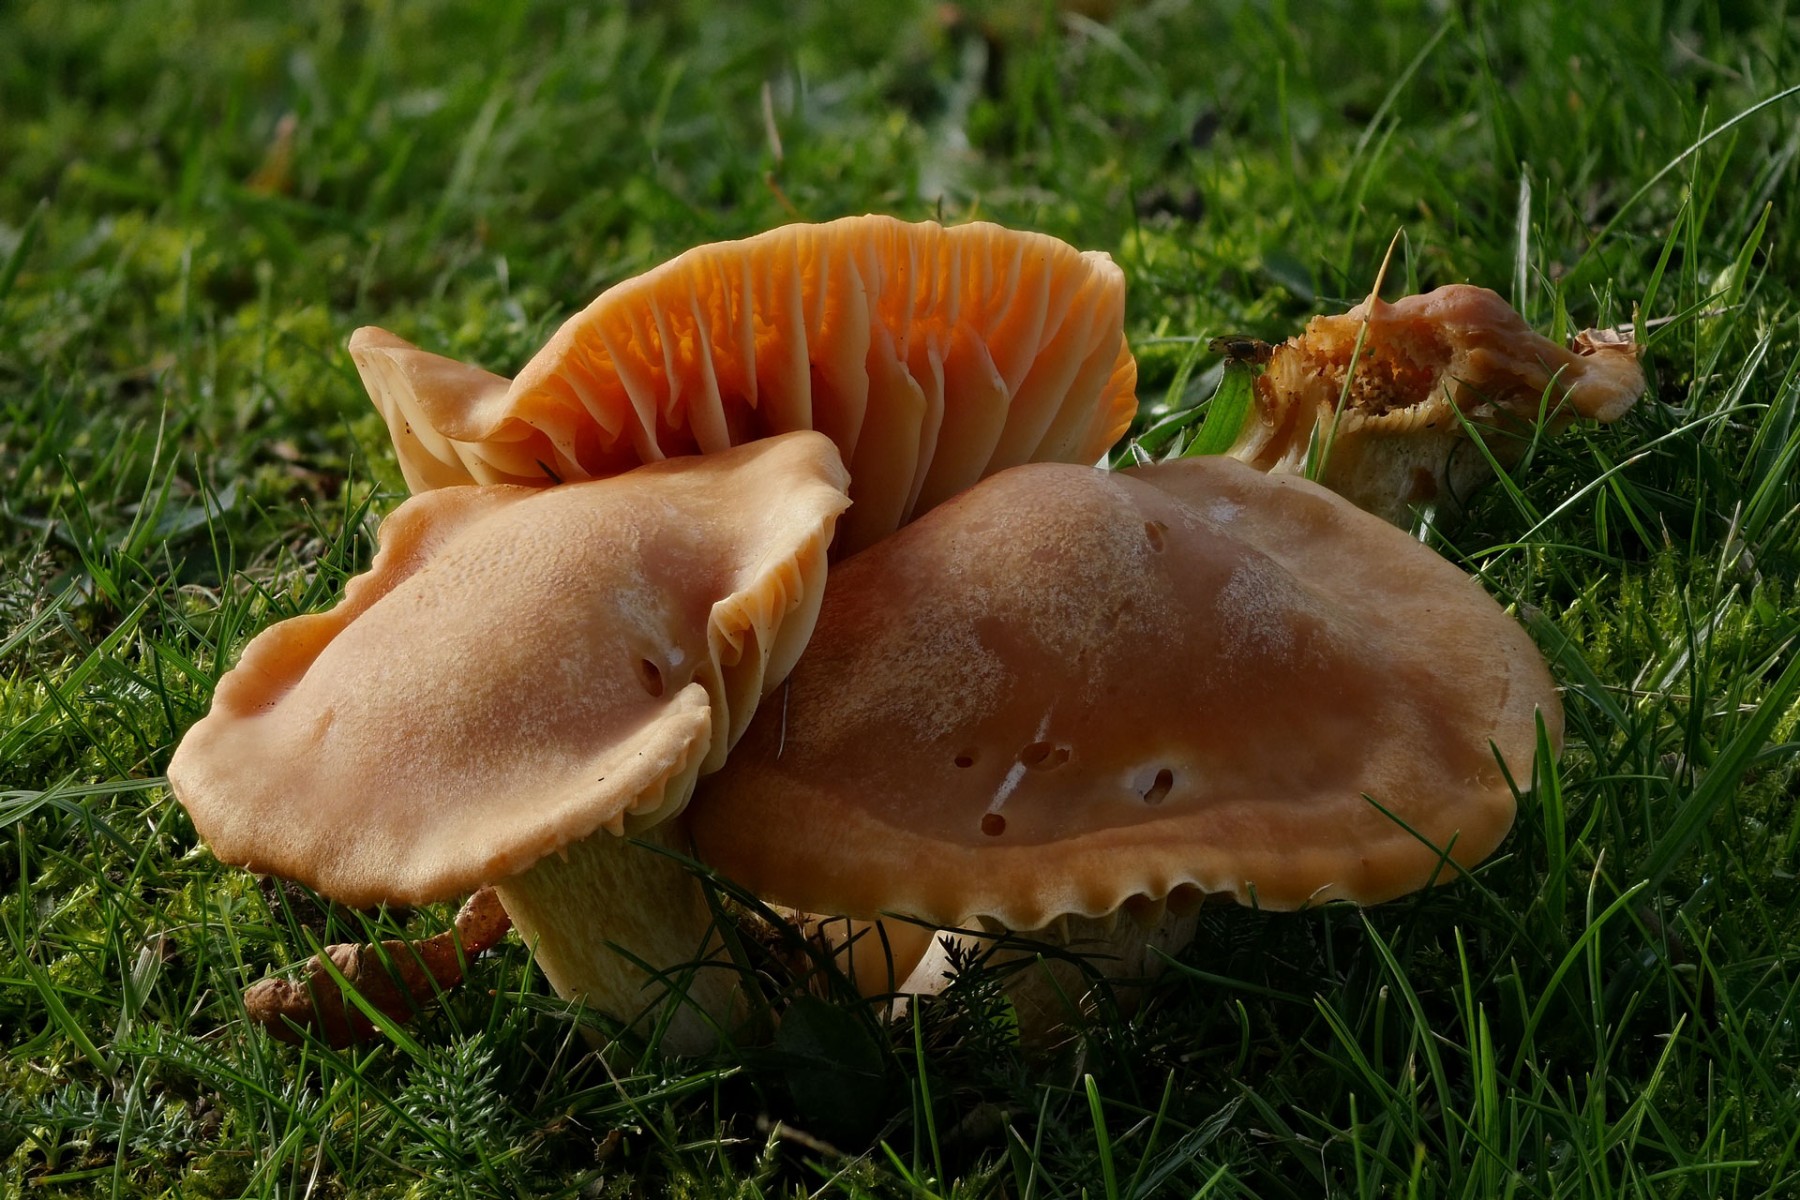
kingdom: Fungi
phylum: Basidiomycota
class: Agaricomycetes
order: Agaricales
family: Hygrophoraceae
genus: Cuphophyllus
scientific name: Cuphophyllus pratensis
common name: eng-vokshat
